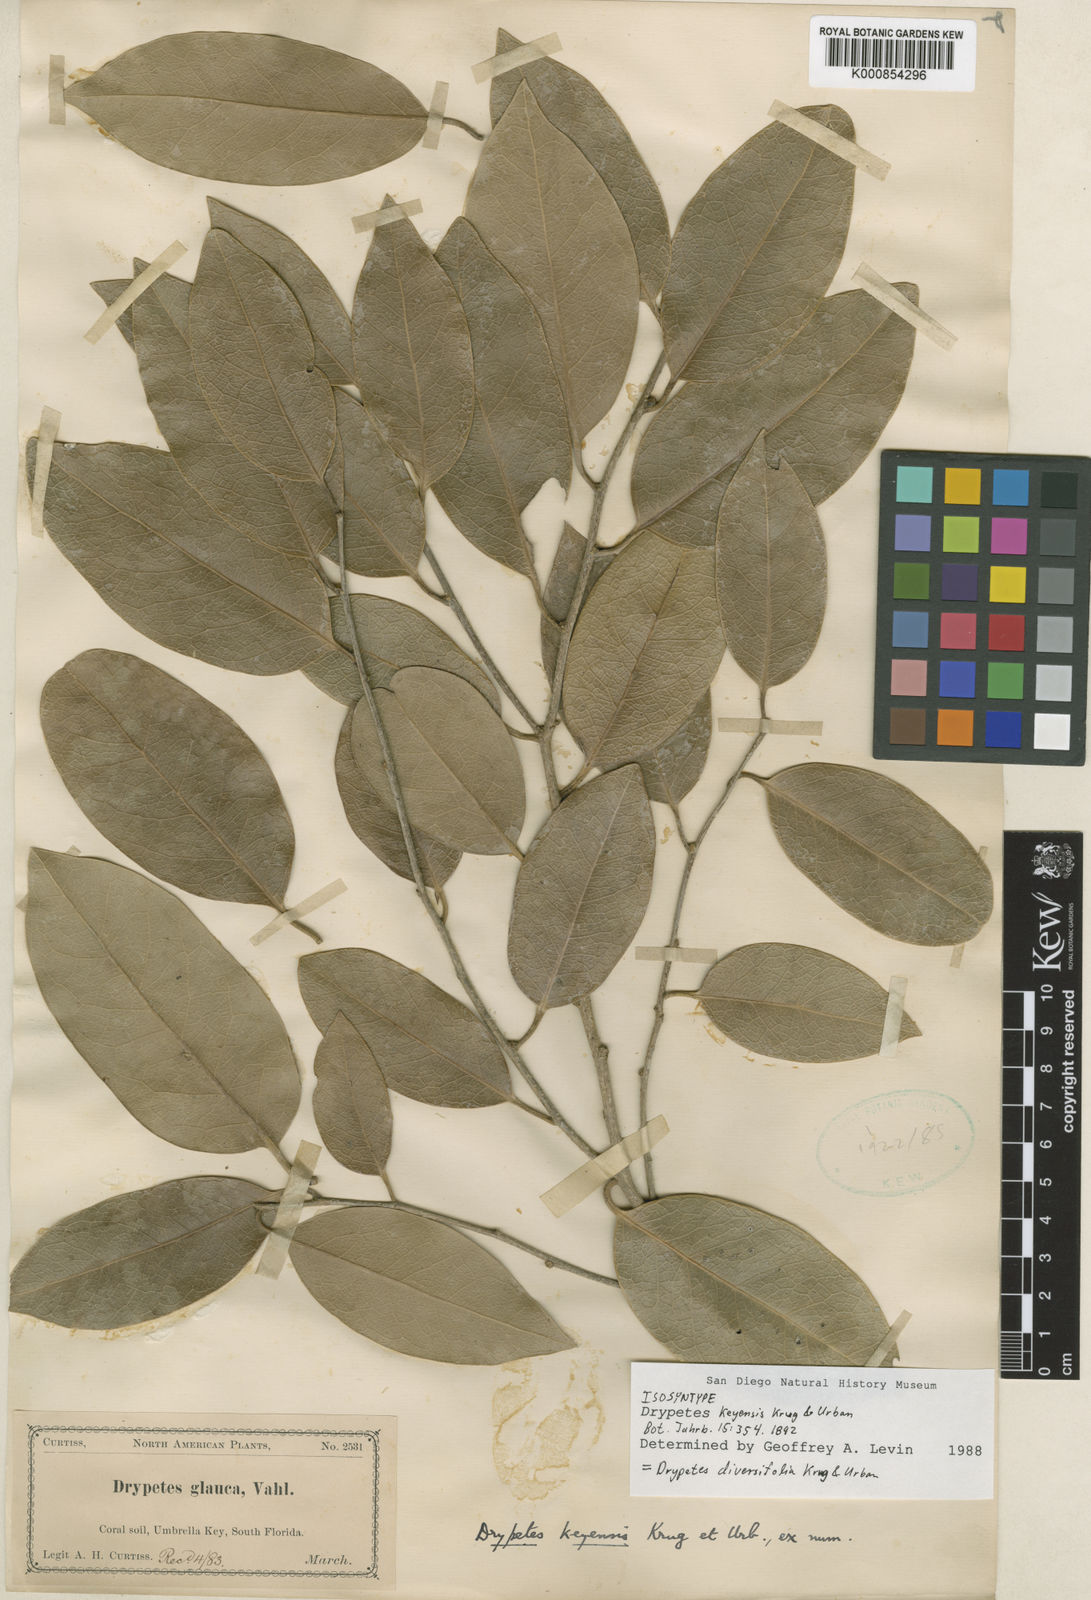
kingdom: Plantae
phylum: Tracheophyta
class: Magnoliopsida
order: Malpighiales
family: Putranjivaceae
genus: Drypetes
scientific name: Drypetes diversifolia
